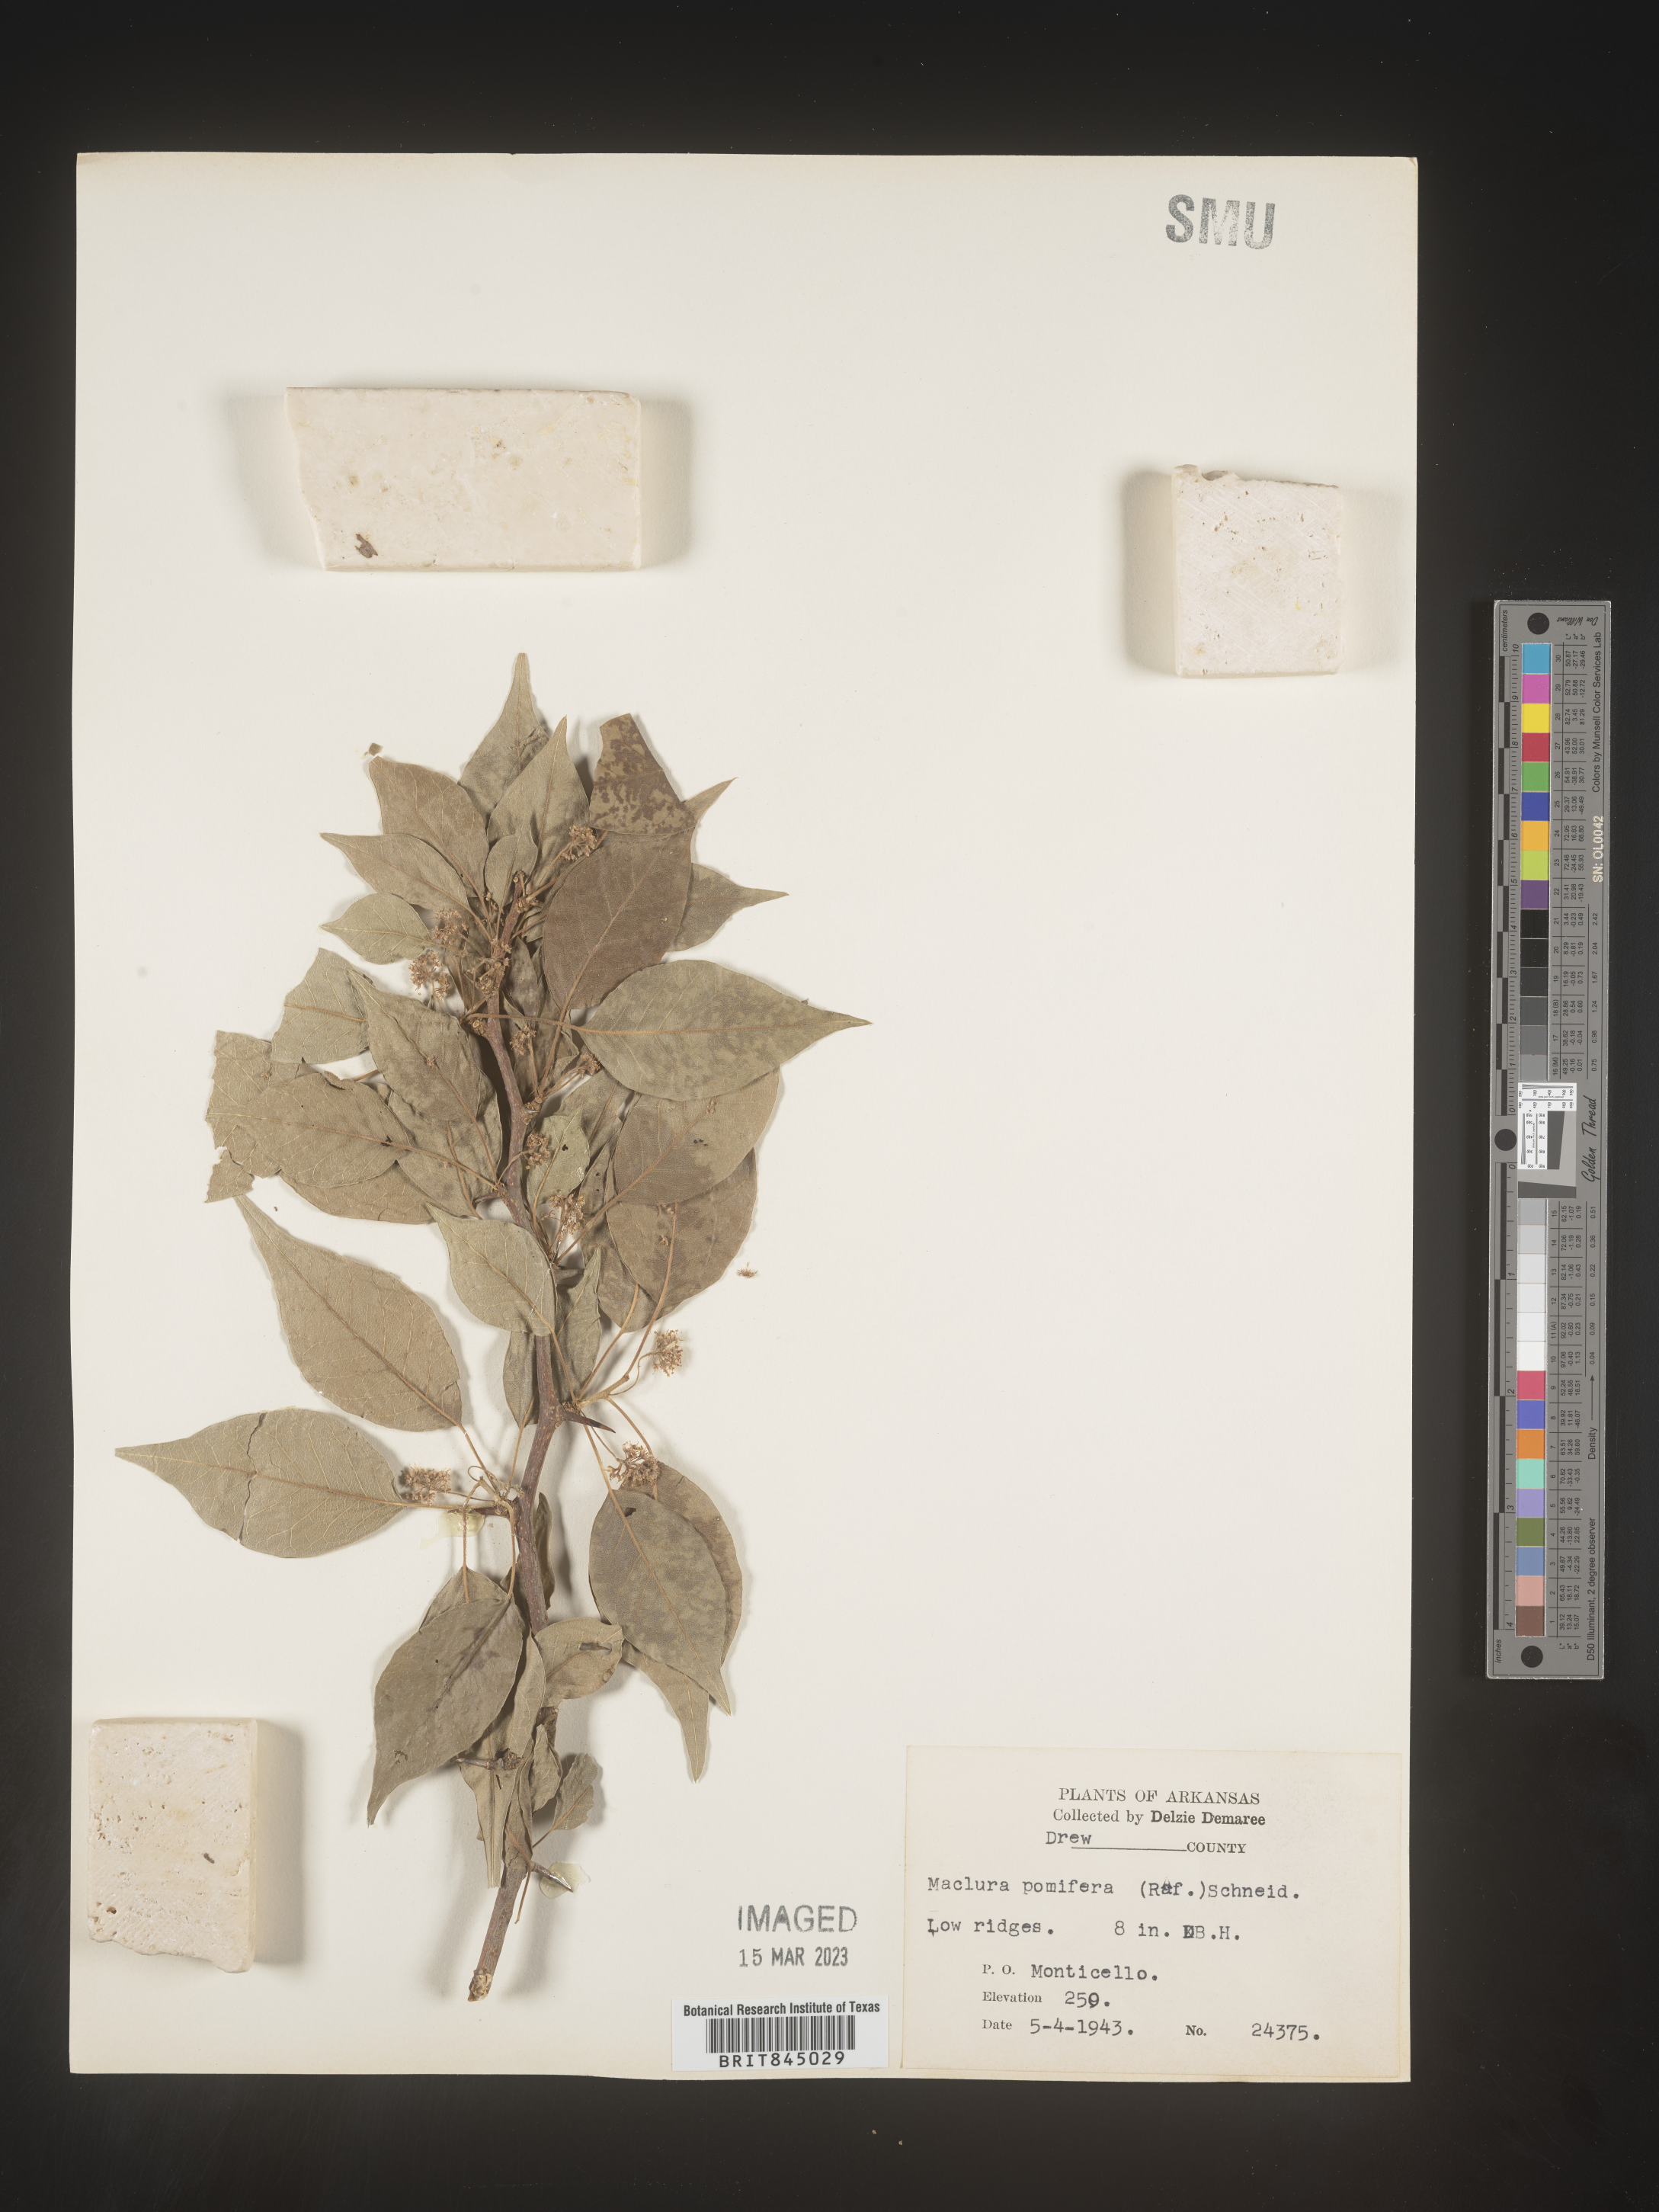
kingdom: Plantae
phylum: Tracheophyta
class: Magnoliopsida
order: Rosales
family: Moraceae
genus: Maclura
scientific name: Maclura pomifera
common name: Osage-orange
